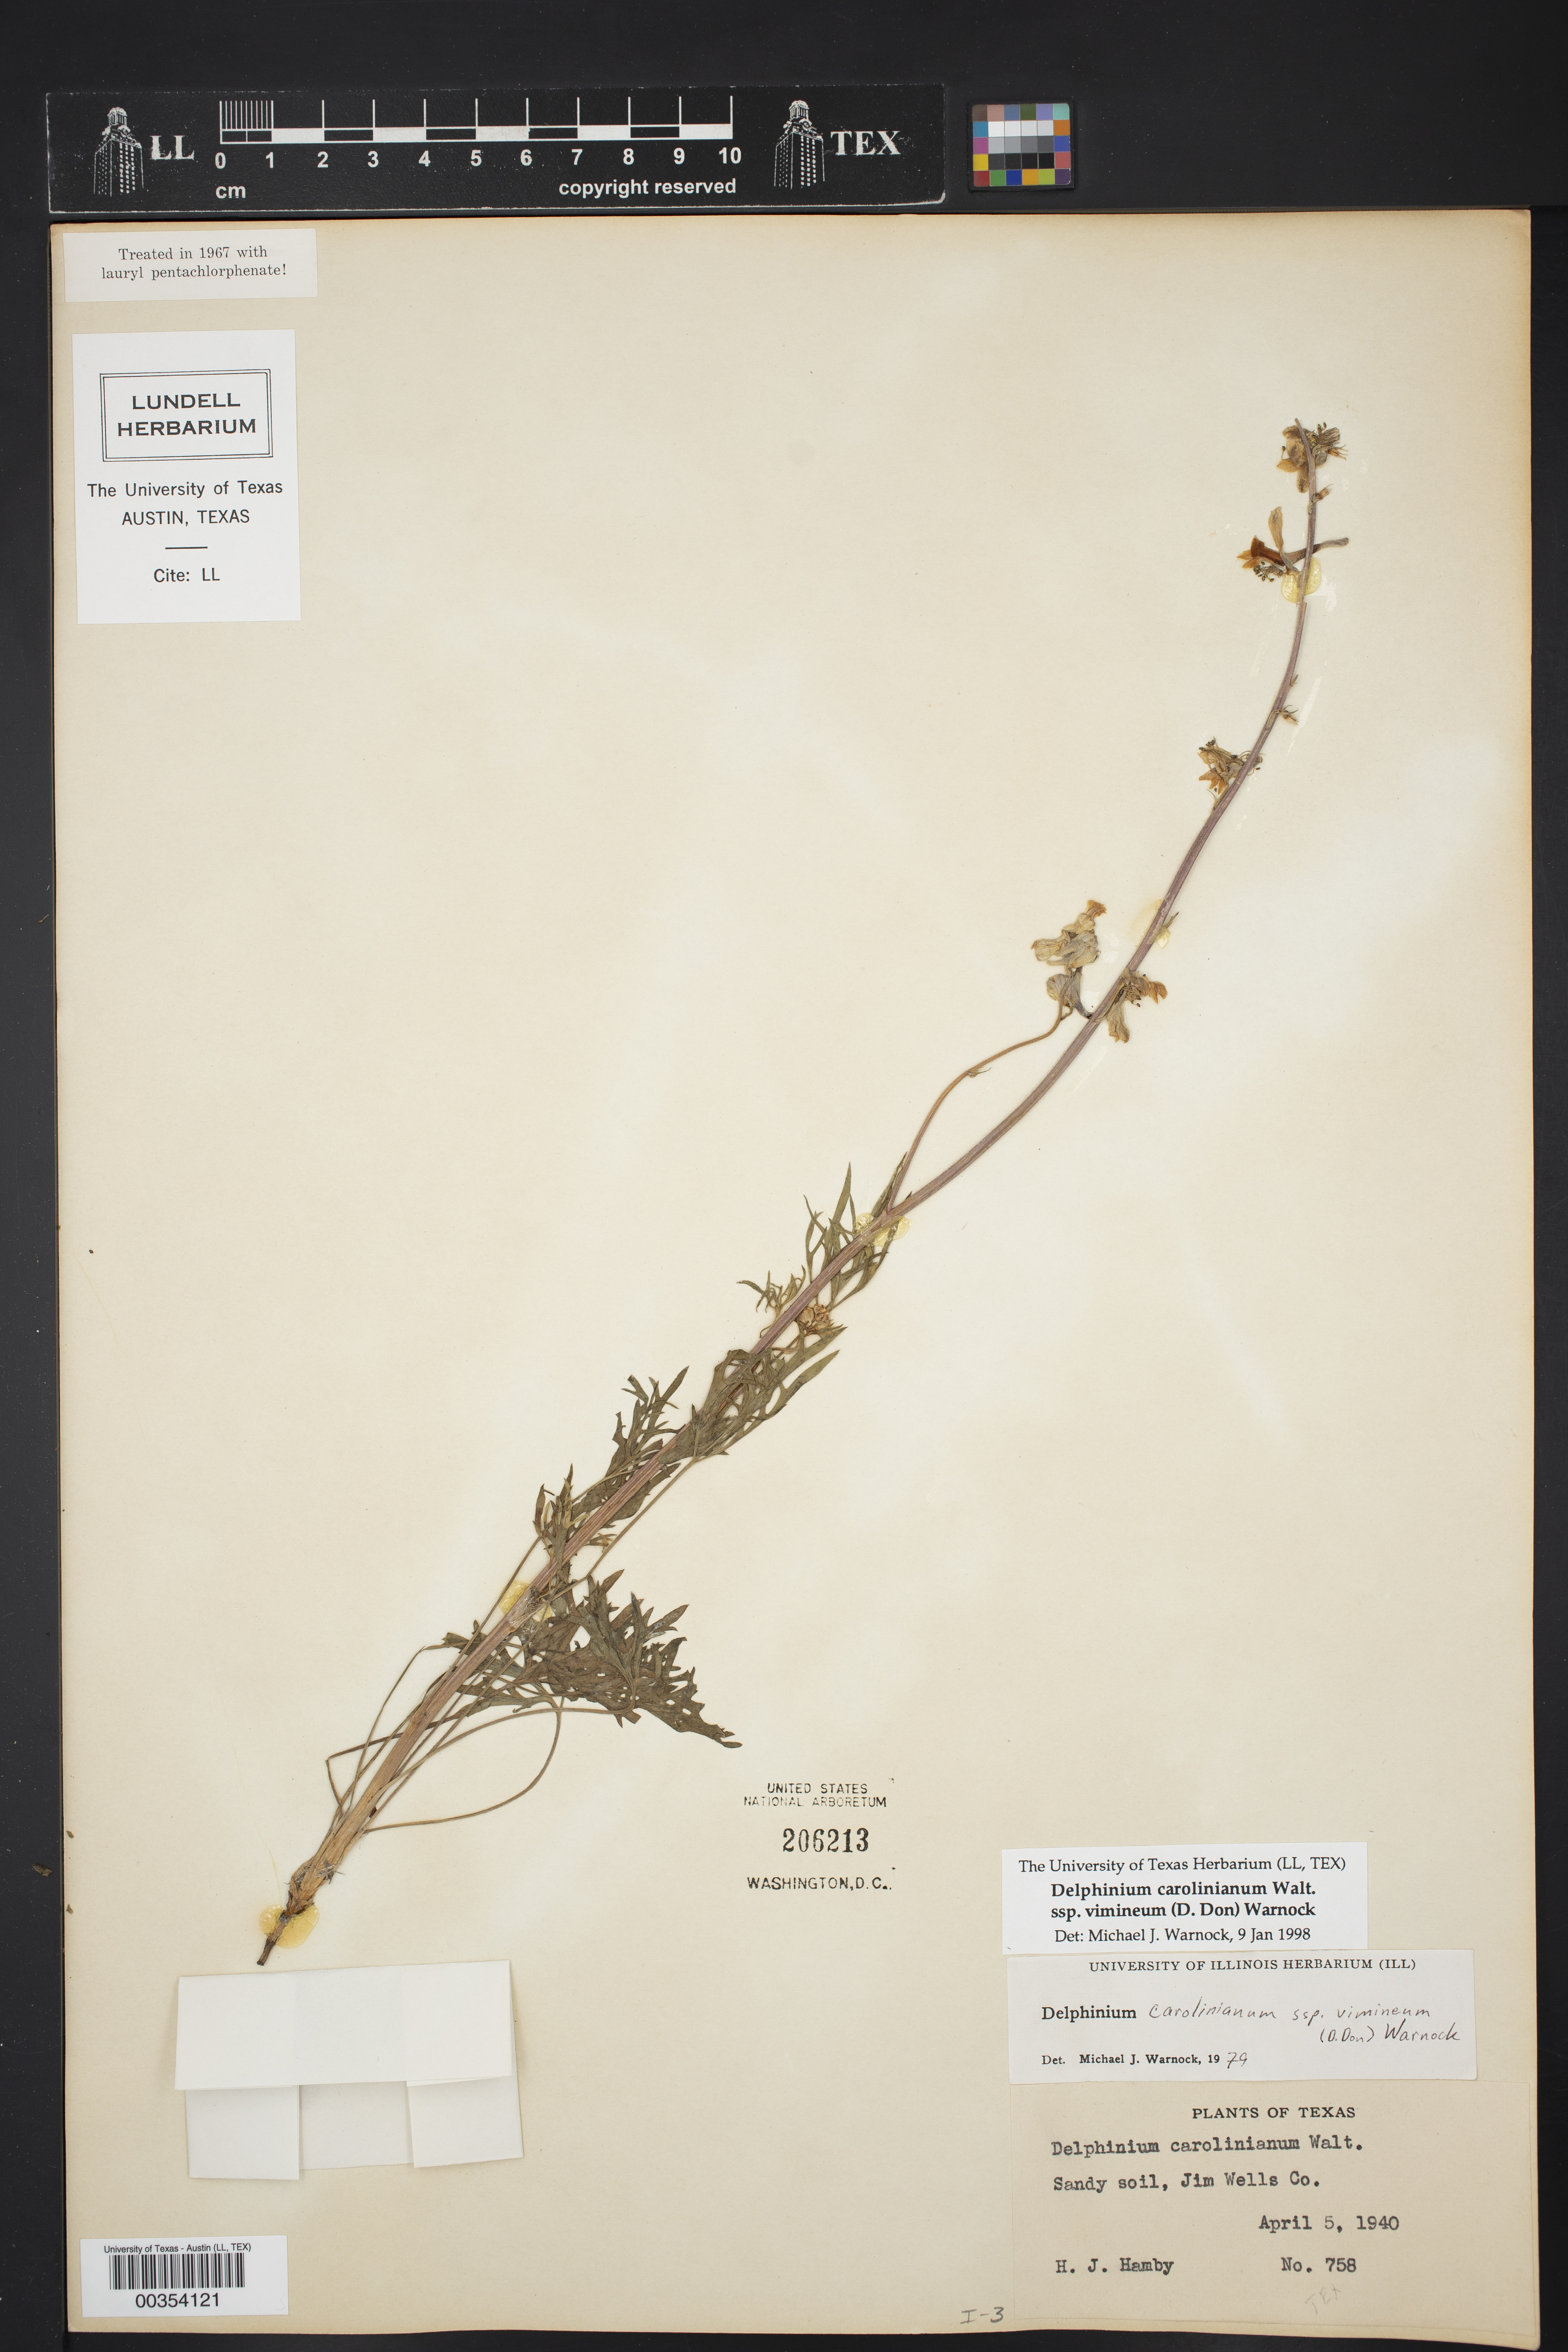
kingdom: Plantae
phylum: Tracheophyta
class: Magnoliopsida
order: Ranunculales
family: Ranunculaceae
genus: Delphinium
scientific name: Delphinium carolinianum
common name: Carolina larkspur
